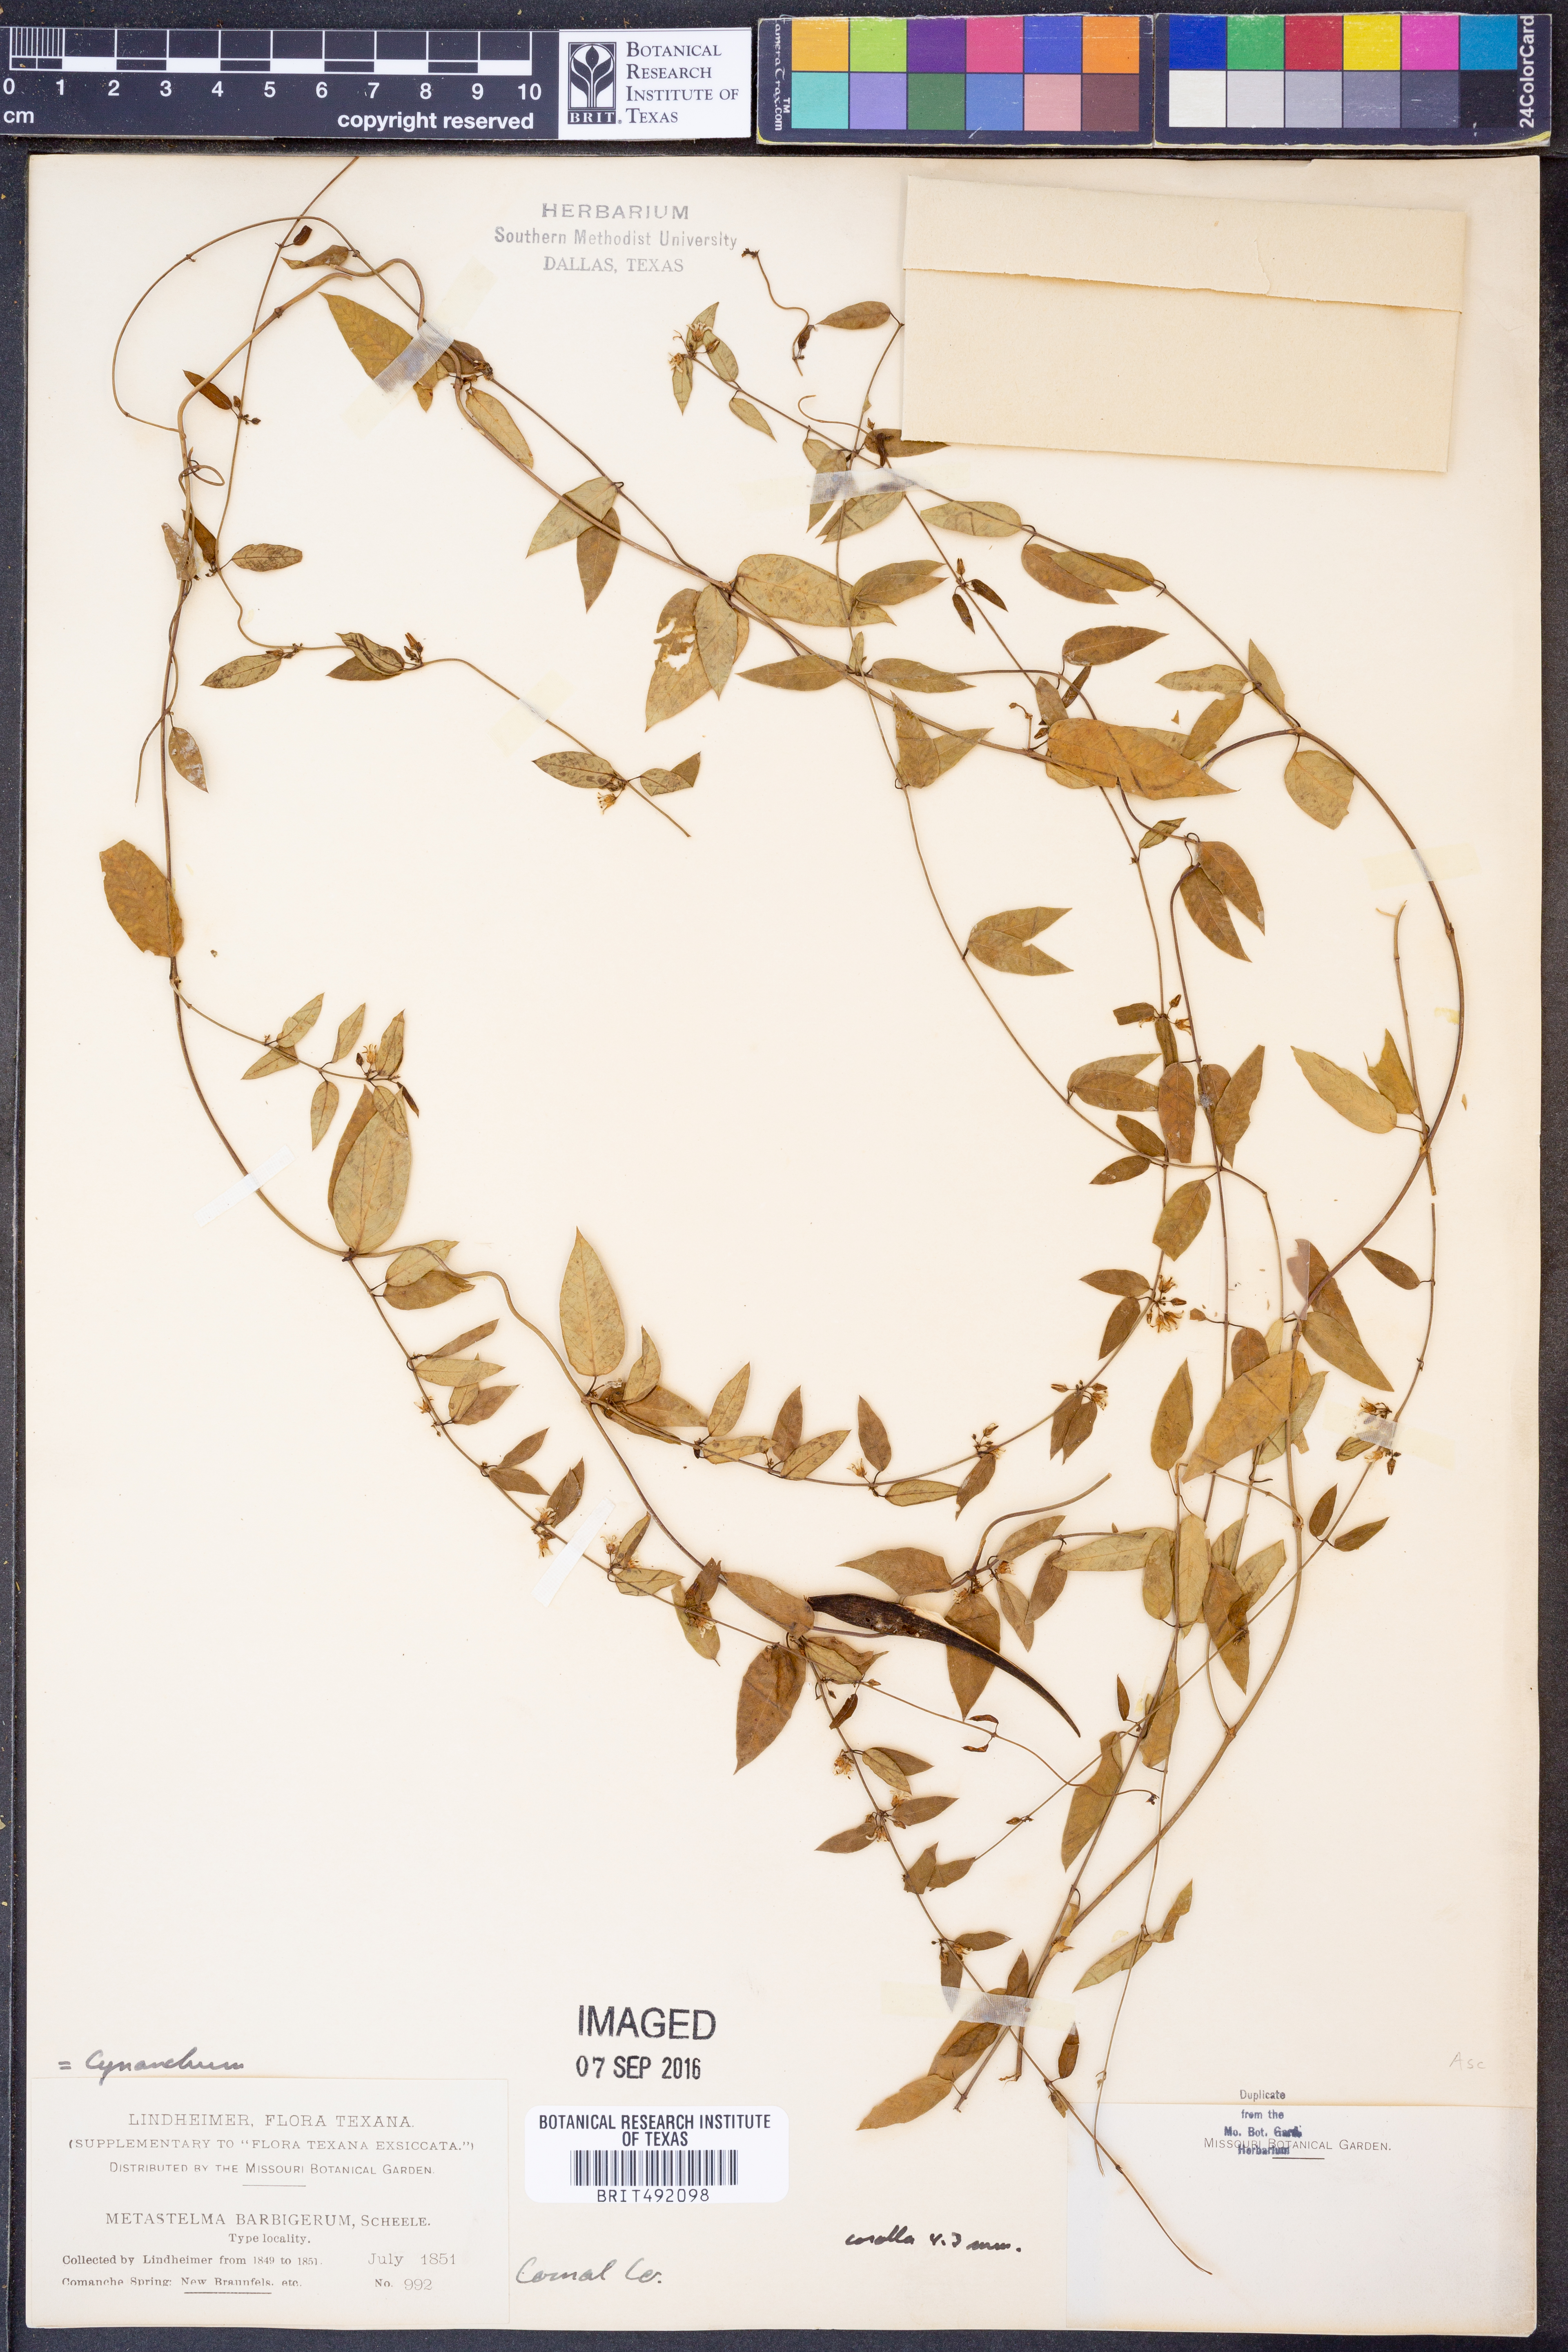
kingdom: Plantae
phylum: Tracheophyta
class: Magnoliopsida
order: Gentianales
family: Apocynaceae
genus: Metastelma
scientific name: Metastelma barbigerum
